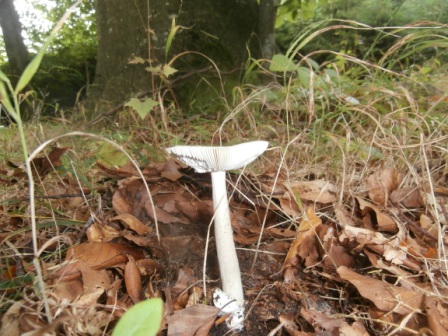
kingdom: Fungi
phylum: Basidiomycota
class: Agaricomycetes
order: Agaricales
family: Amanitaceae
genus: Amanita
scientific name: Amanita vaginata
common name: grå kam-fluesvamp
